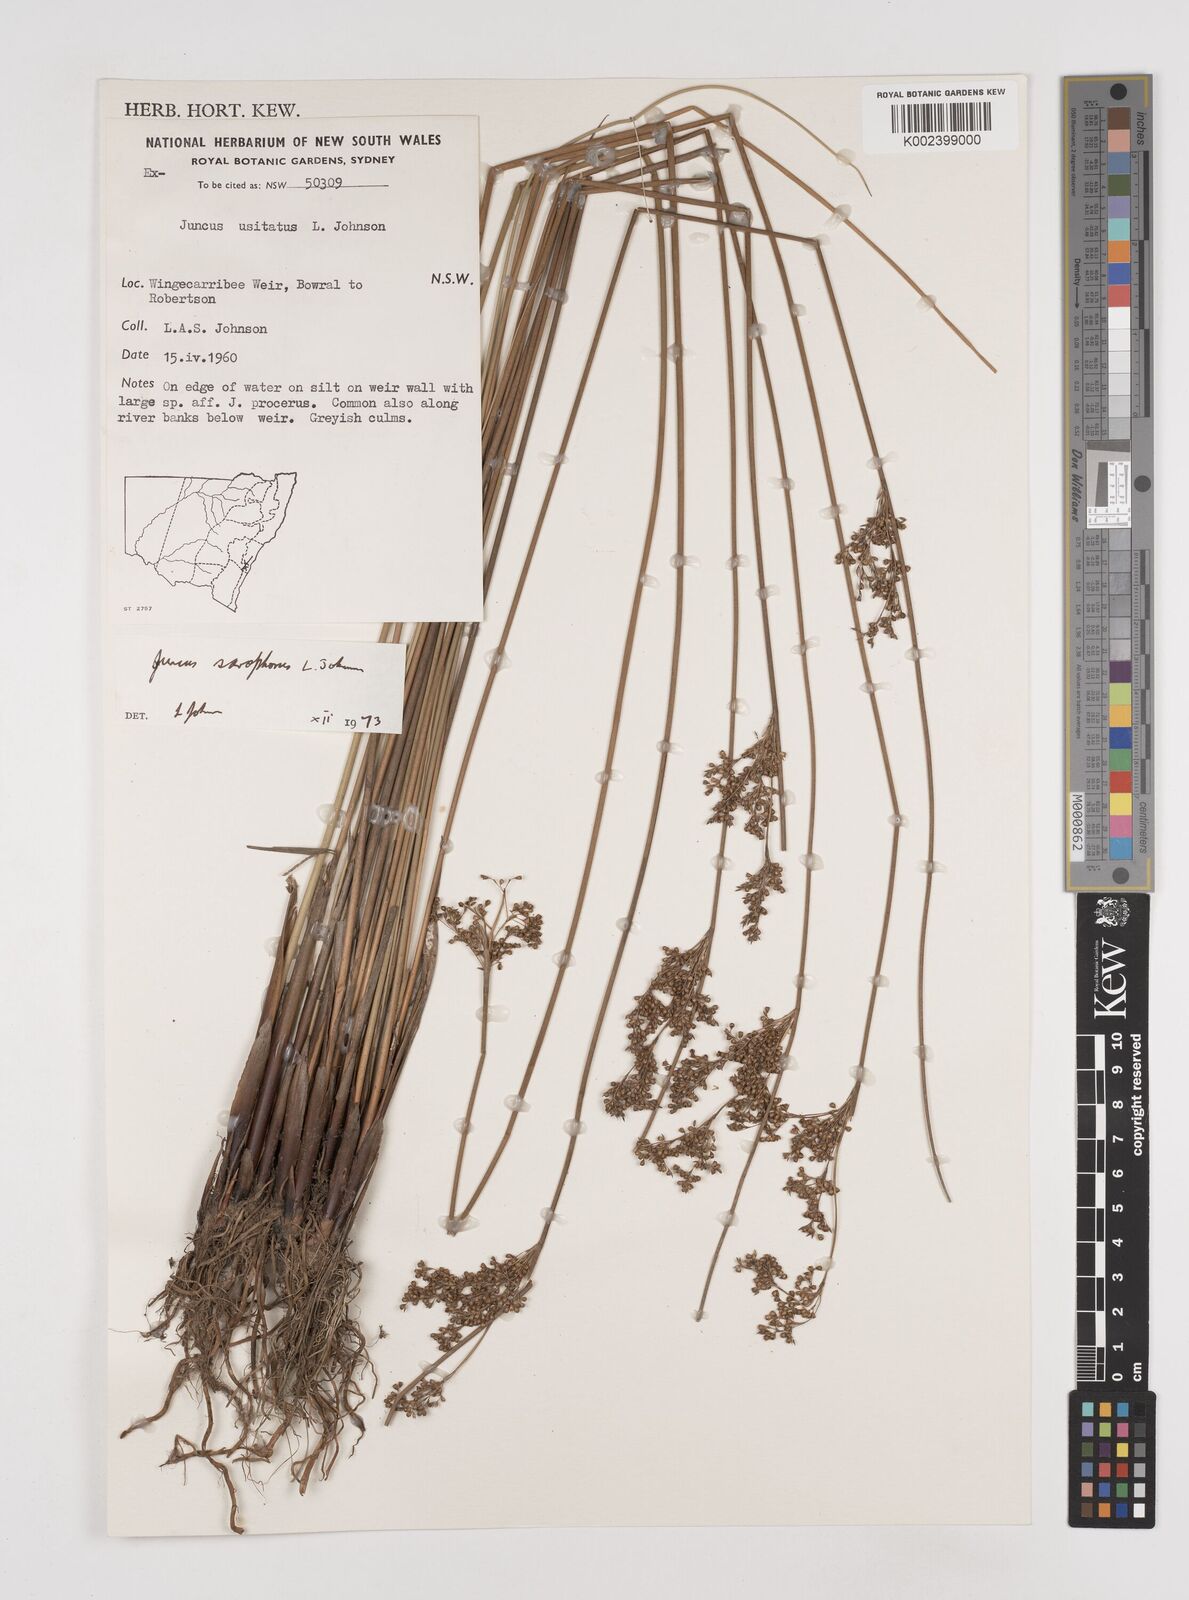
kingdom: Plantae
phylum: Tracheophyta
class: Liliopsida
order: Poales
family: Juncaceae
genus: Juncus
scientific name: Juncus sarophorus
